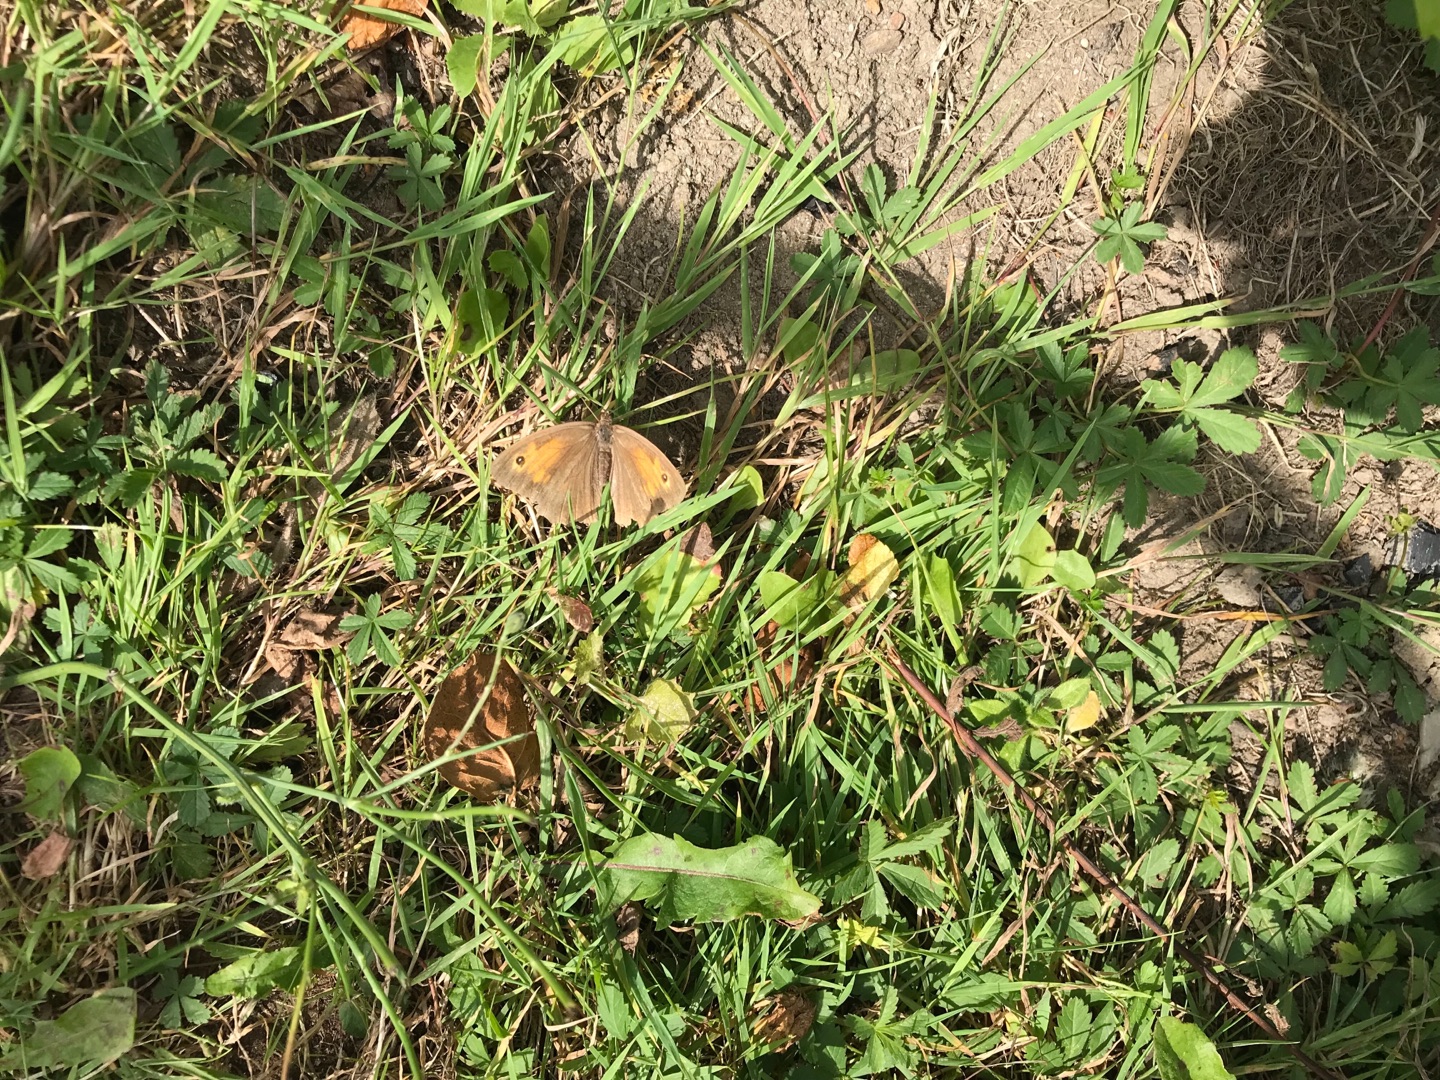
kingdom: Animalia
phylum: Arthropoda
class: Insecta
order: Lepidoptera
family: Nymphalidae
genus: Maniola
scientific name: Maniola jurtina
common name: Græsrandøje
